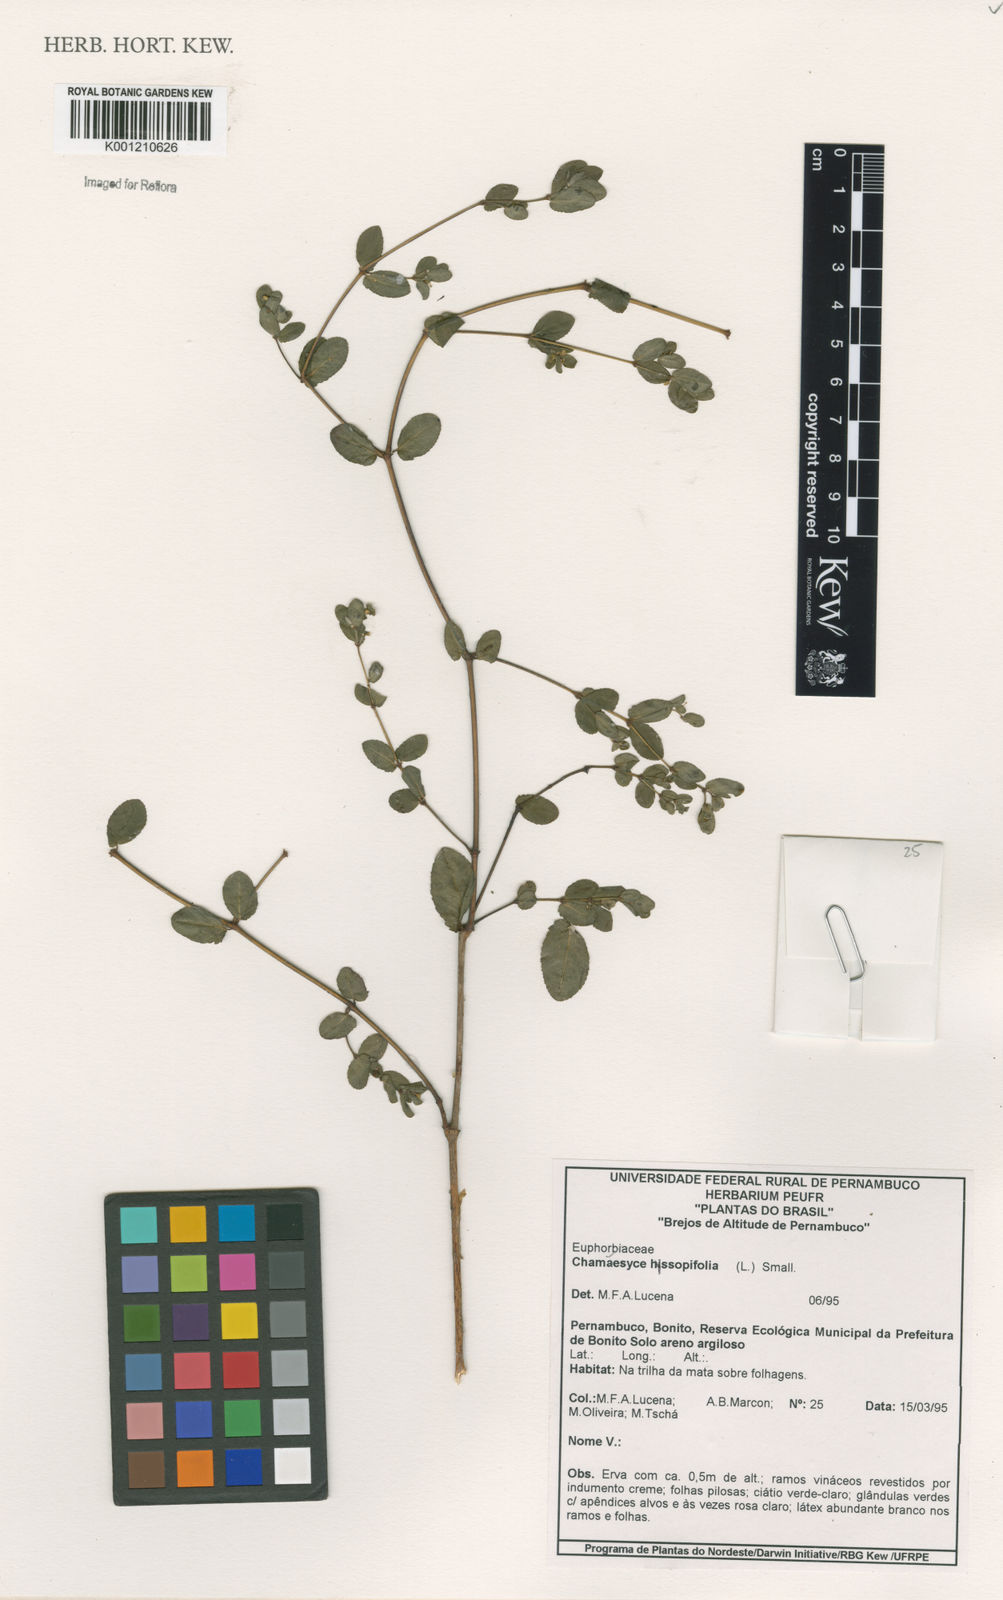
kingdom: Plantae
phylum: Tracheophyta
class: Magnoliopsida
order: Malpighiales
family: Euphorbiaceae
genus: Euphorbia
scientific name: Euphorbia hyssopifolia
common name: Hyssopleaf sandmat
